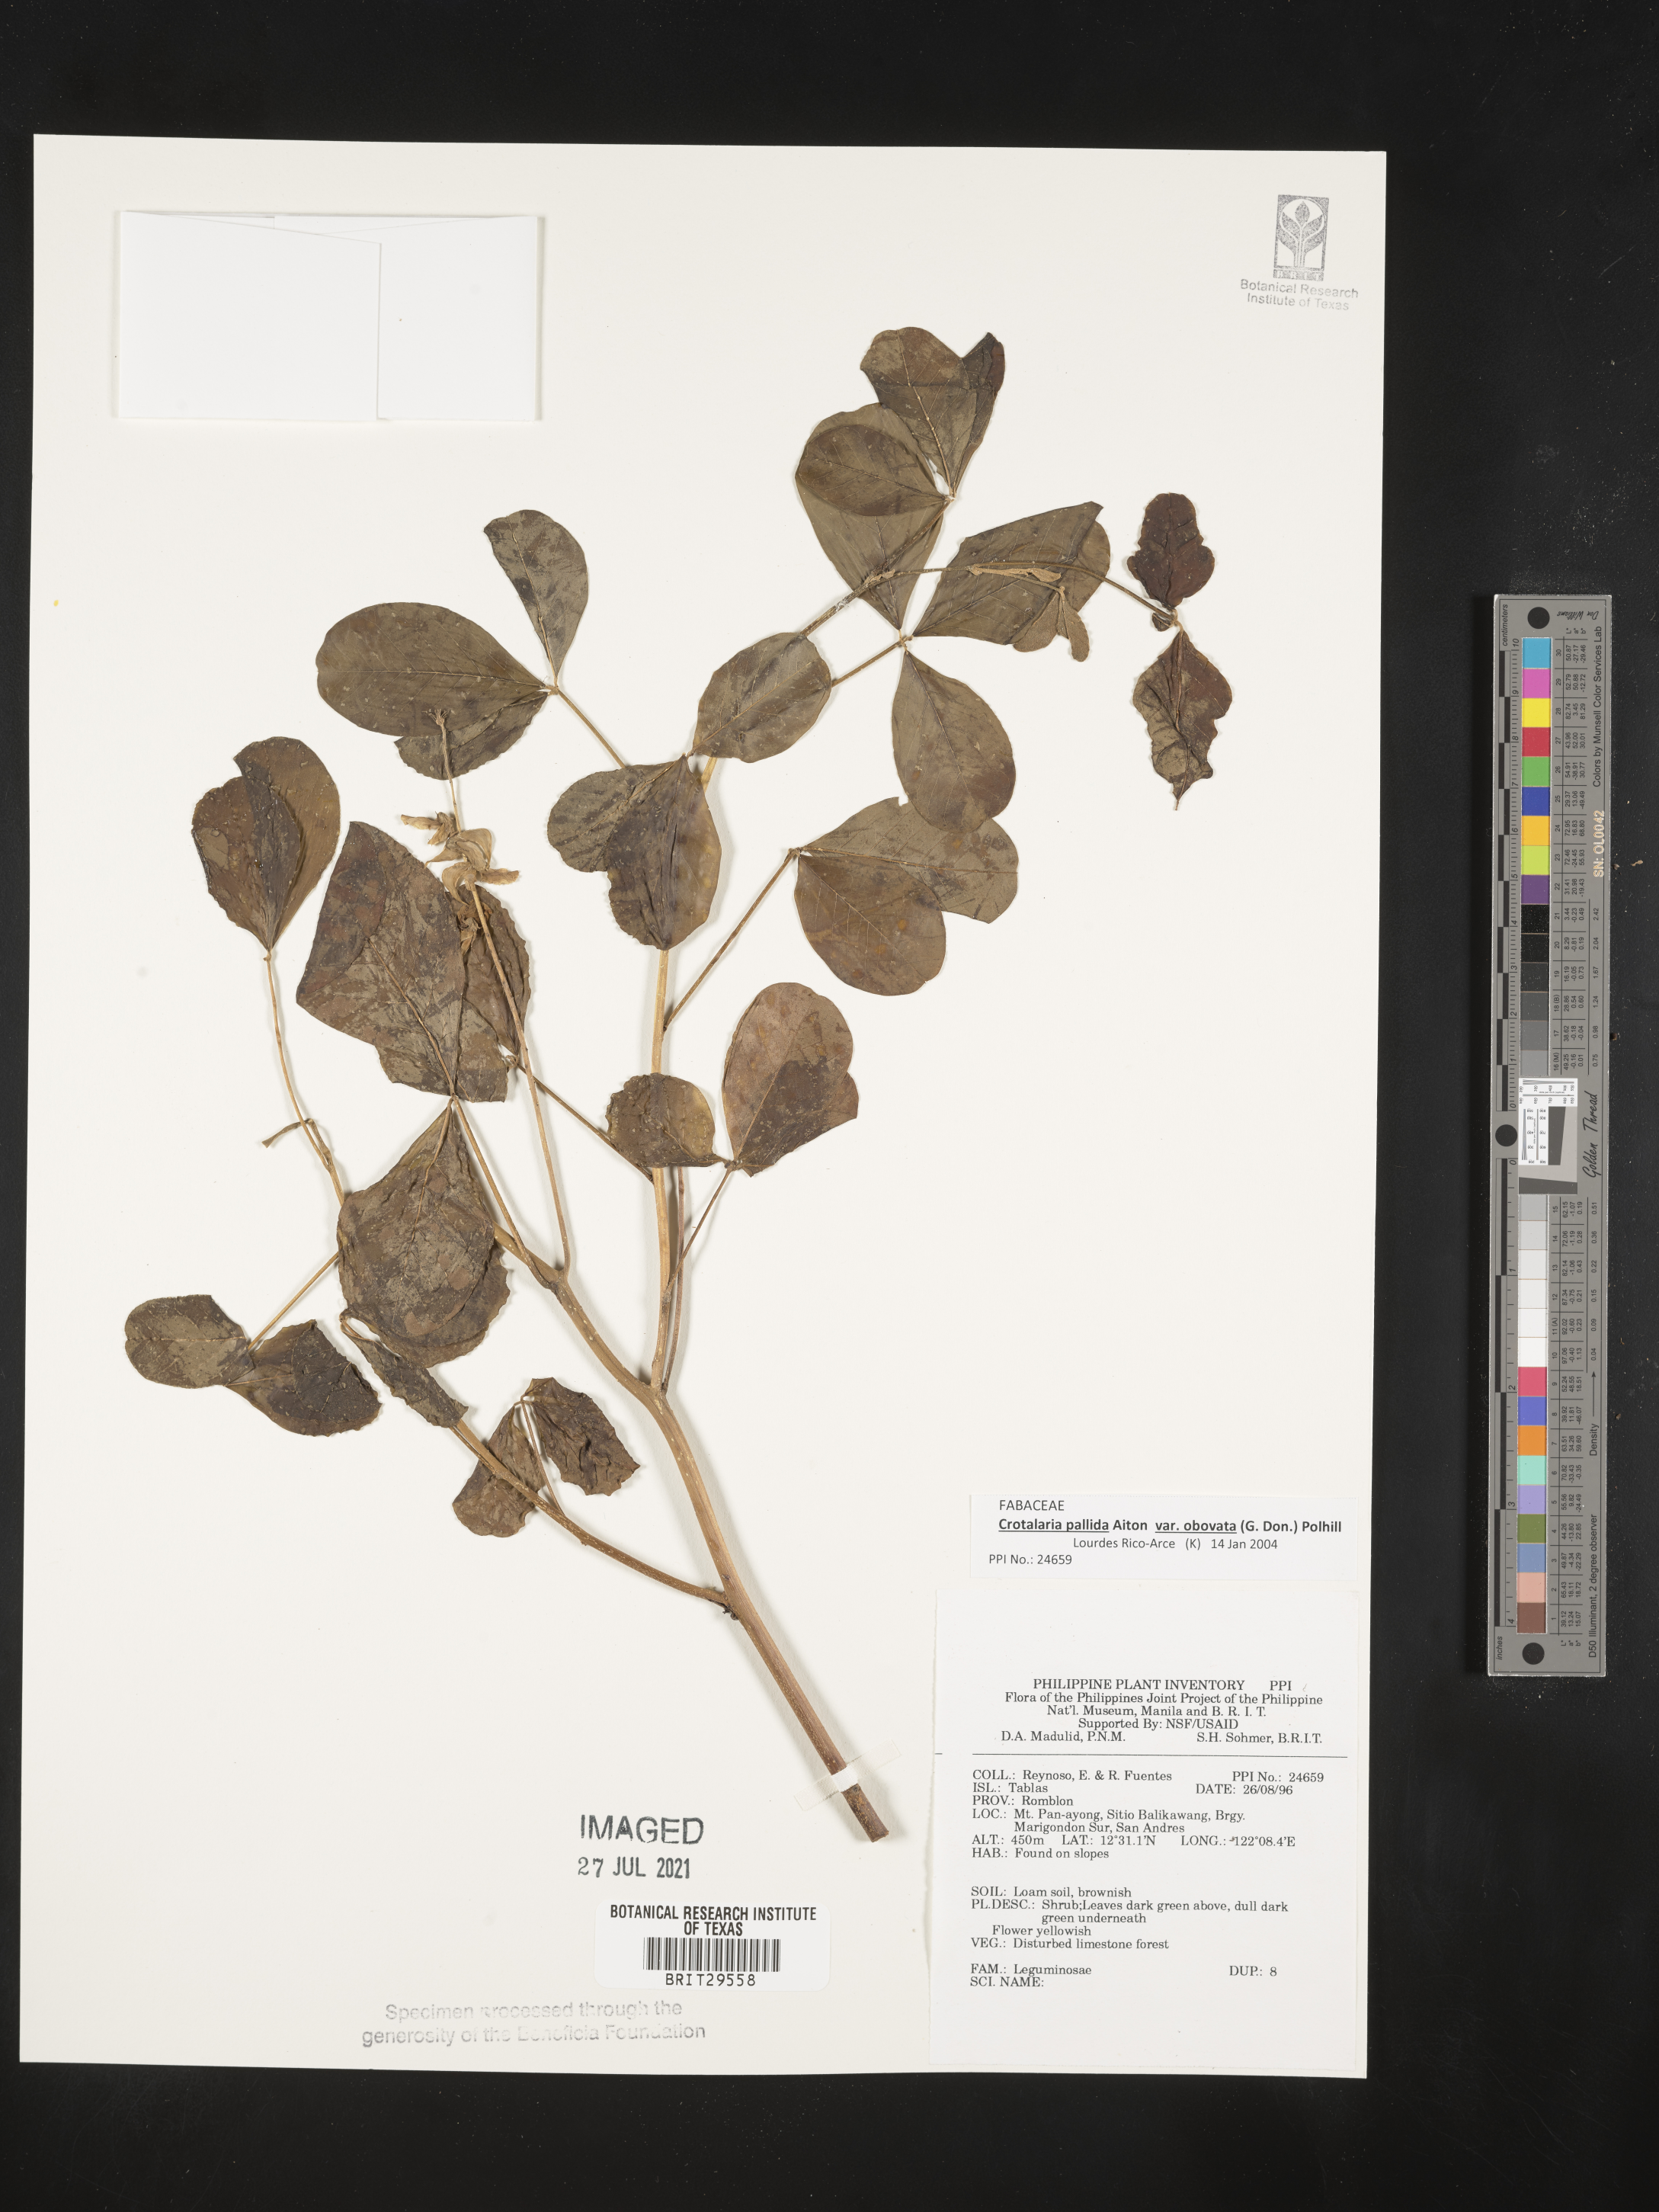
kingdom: Plantae
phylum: Tracheophyta
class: Magnoliopsida
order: Fabales
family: Fabaceae
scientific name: Fabaceae
